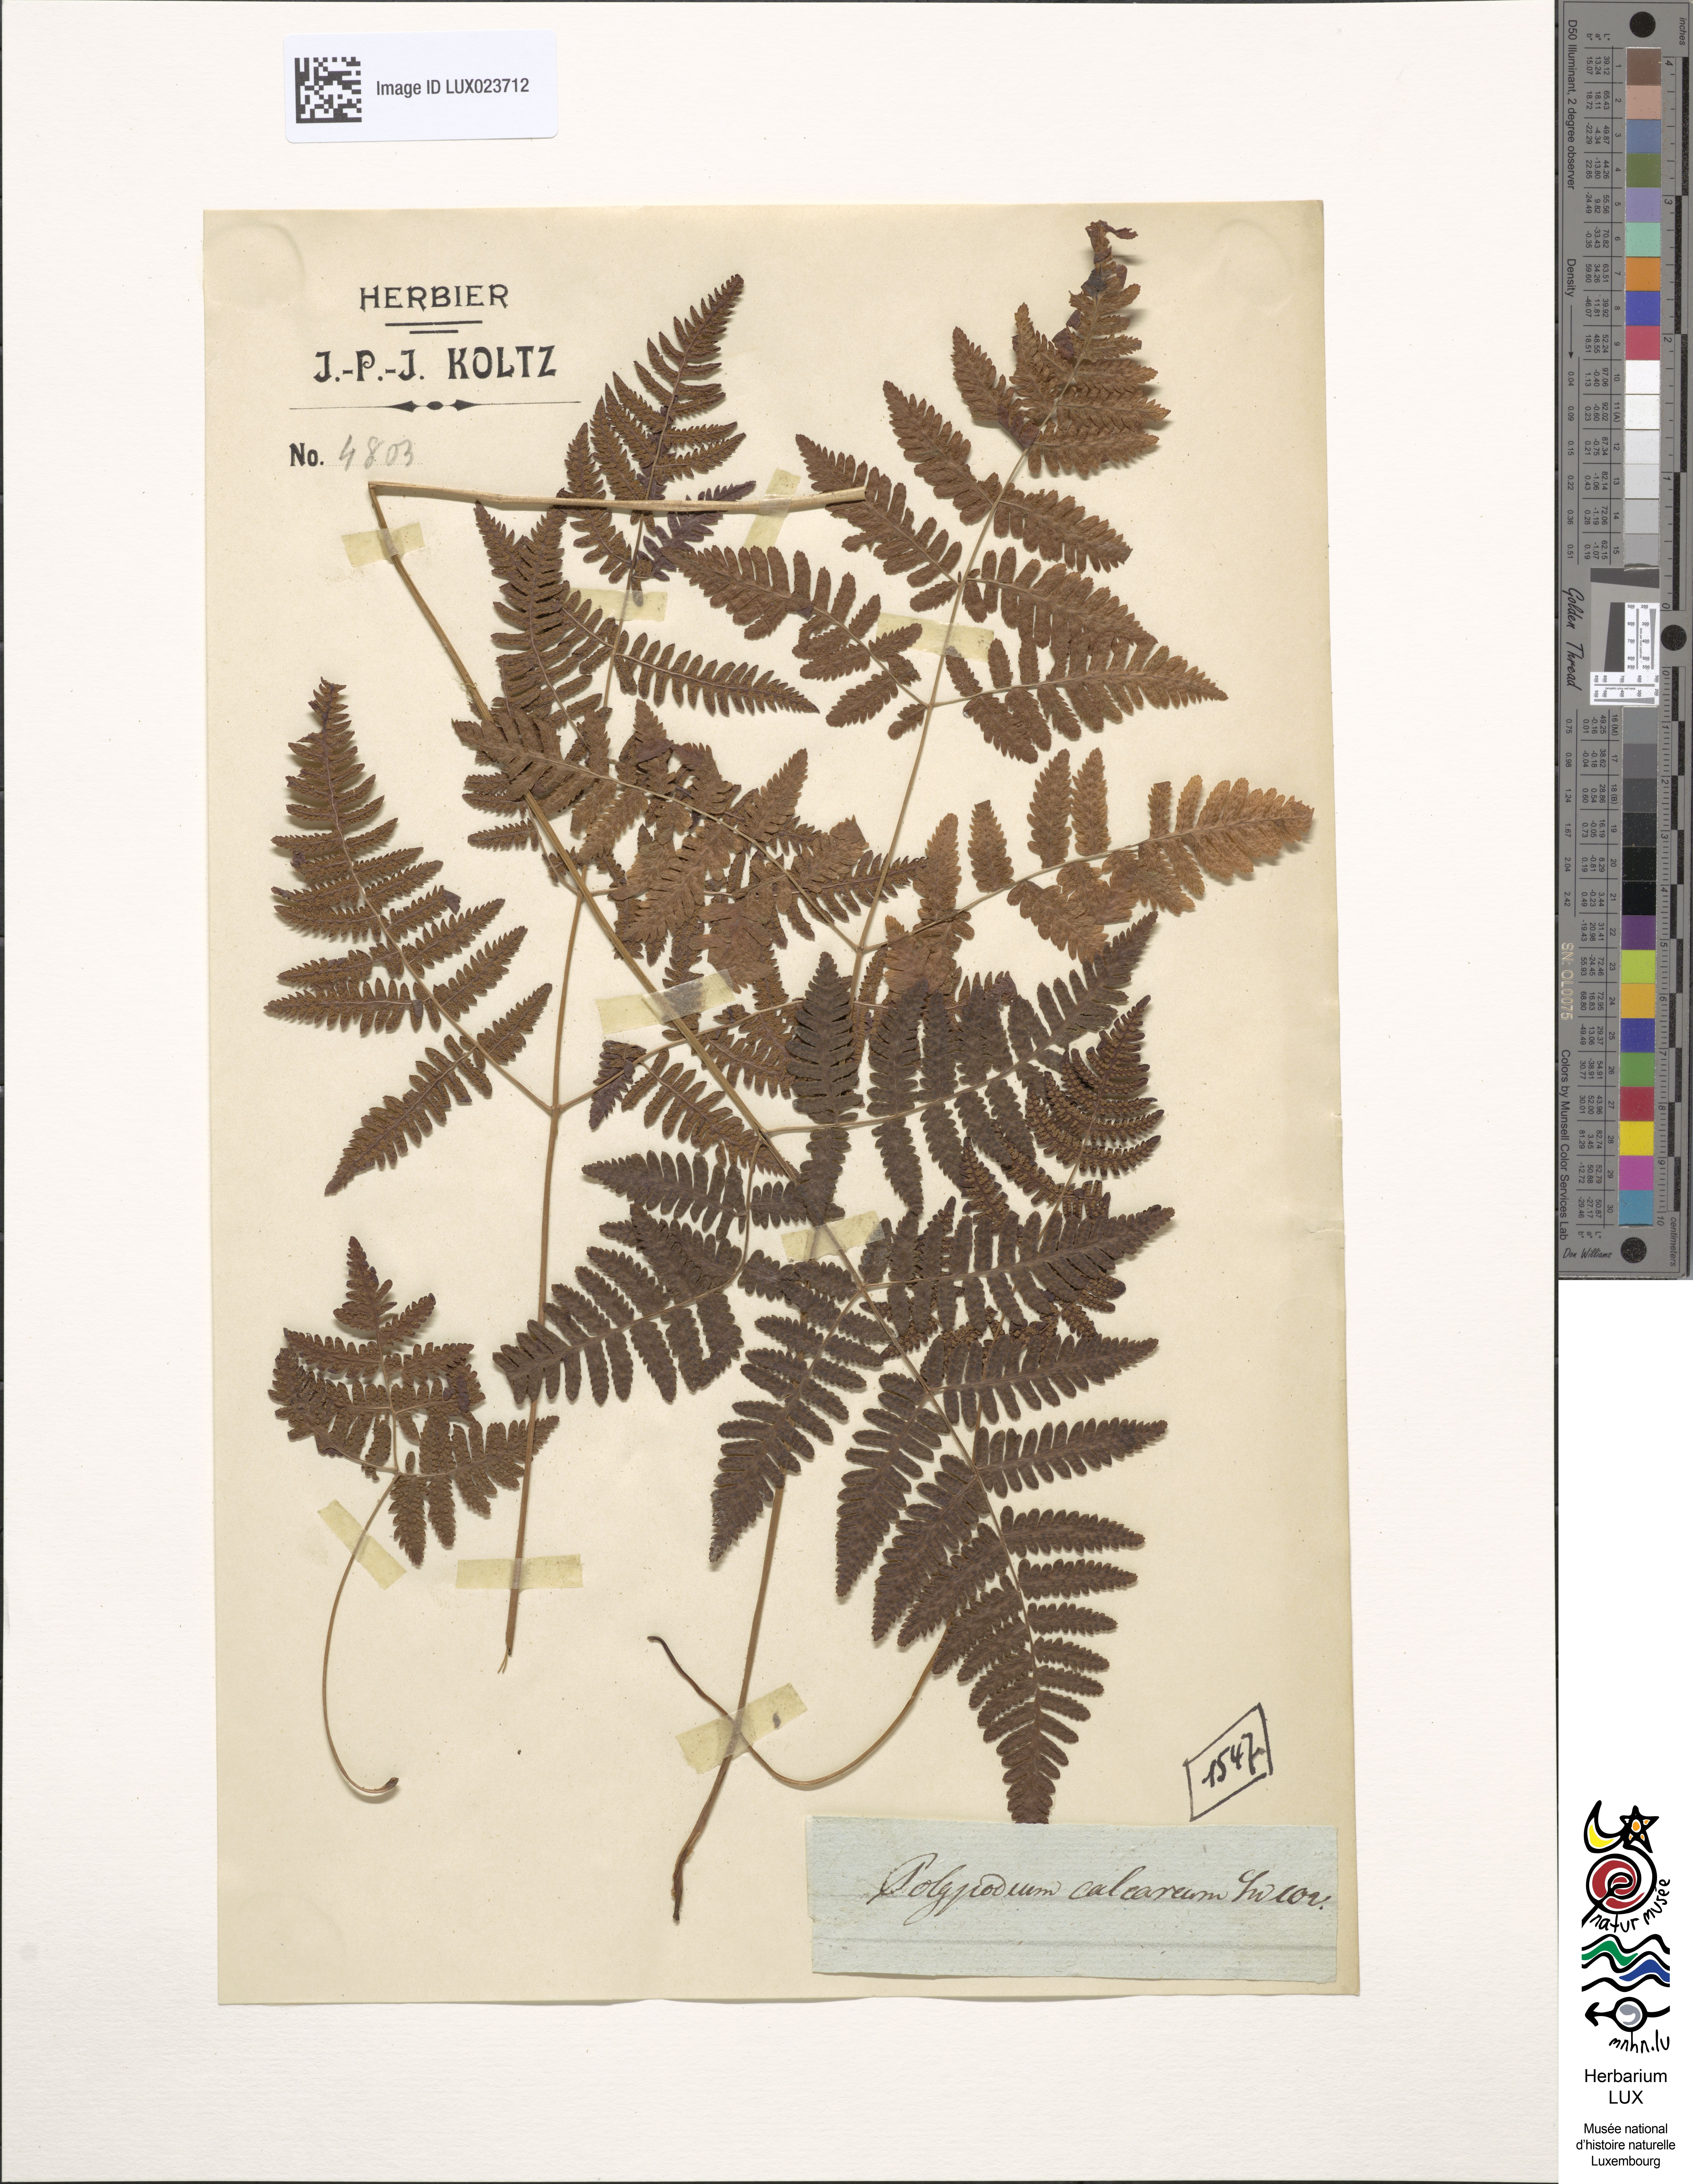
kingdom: Plantae
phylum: Tracheophyta
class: Polypodiopsida
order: Polypodiales
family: Cystopteridaceae
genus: Gymnocarpium
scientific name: Gymnocarpium robertianum
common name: Limestone fern
